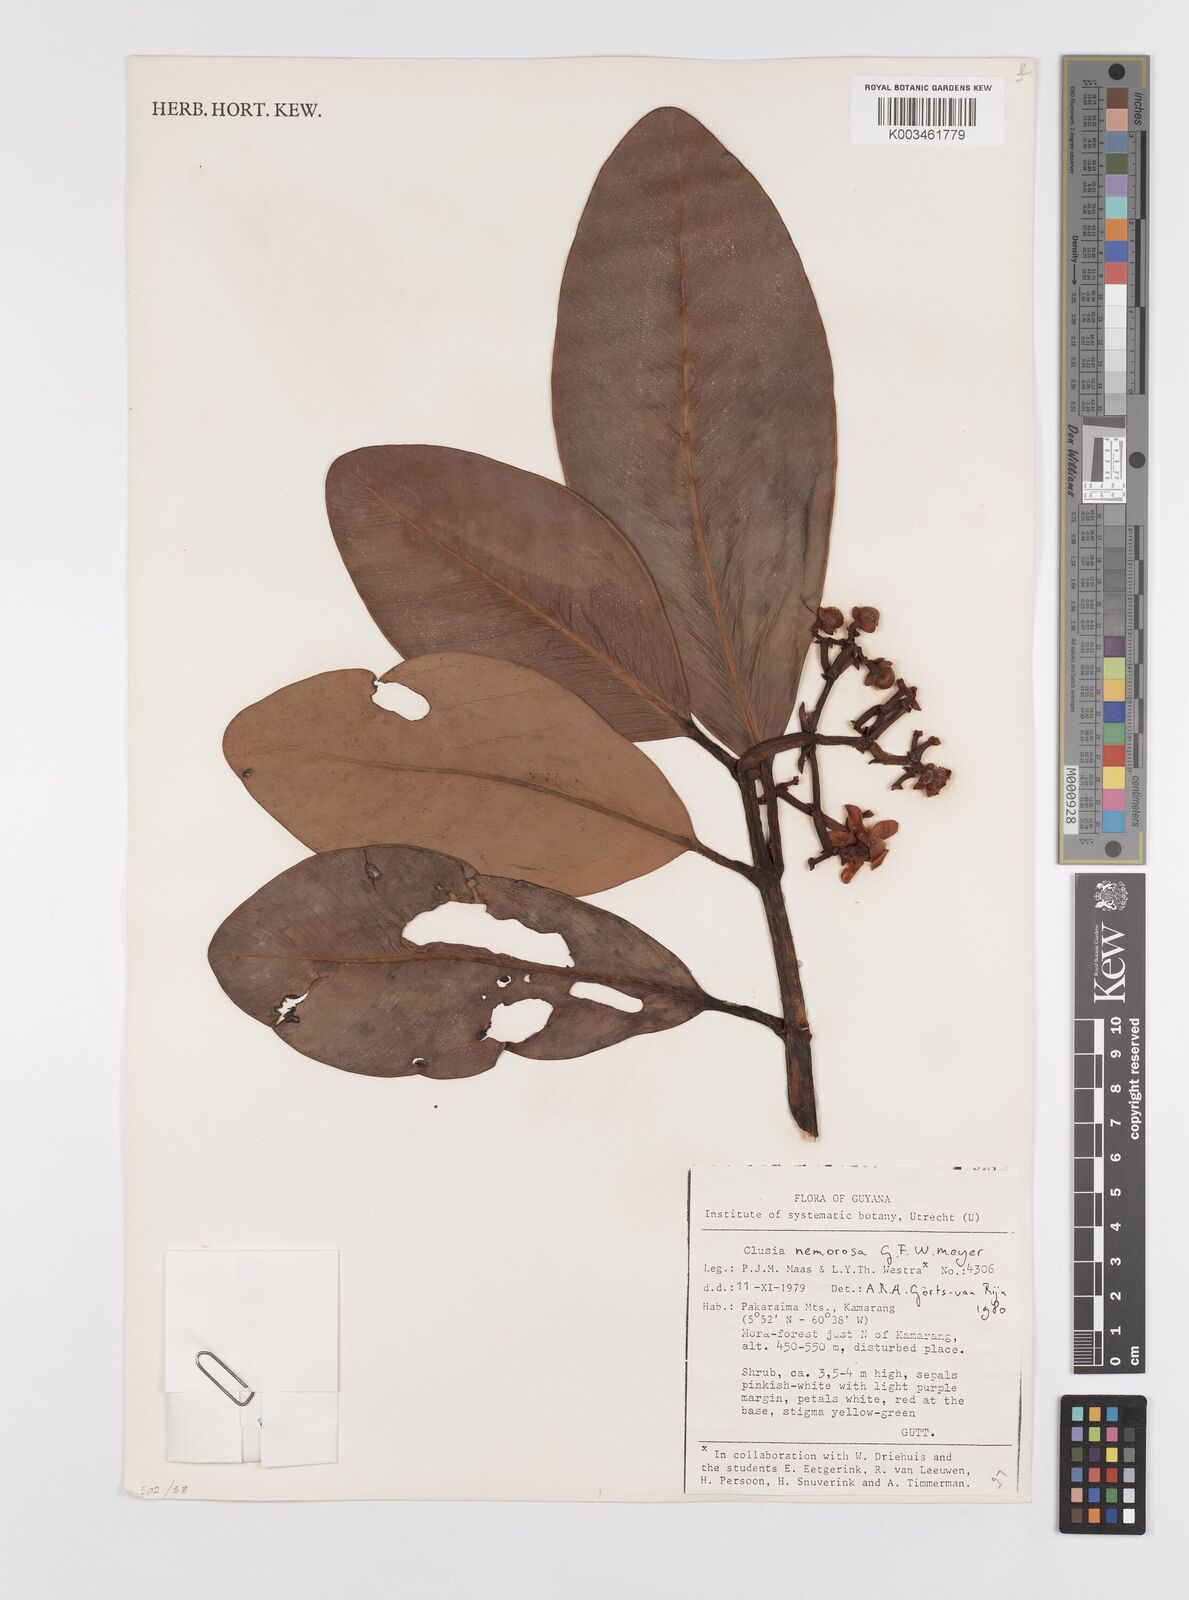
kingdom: Plantae
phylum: Tracheophyta
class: Magnoliopsida
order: Malpighiales
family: Clusiaceae
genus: Clusia
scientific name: Clusia nemorosa
